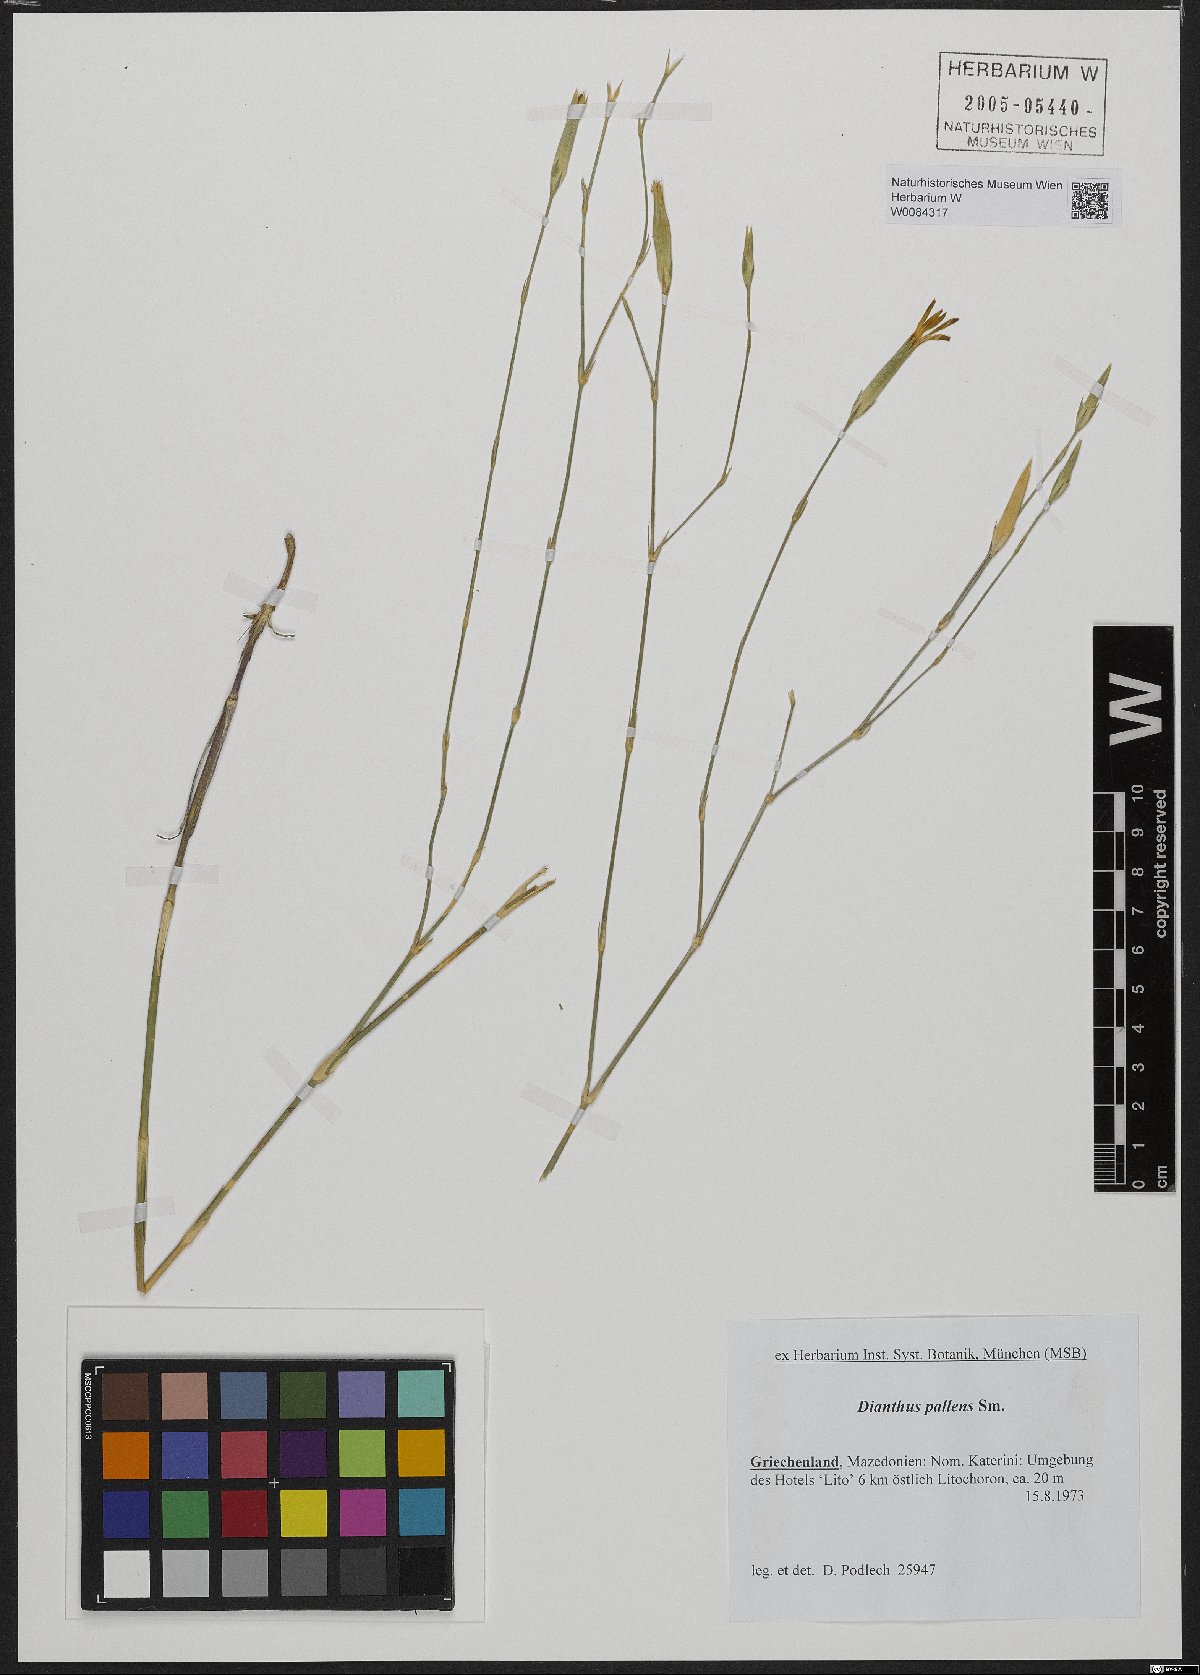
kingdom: Plantae
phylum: Tracheophyta
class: Magnoliopsida
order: Caryophyllales
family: Caryophyllaceae
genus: Dianthus
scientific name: Dianthus monadelphus
